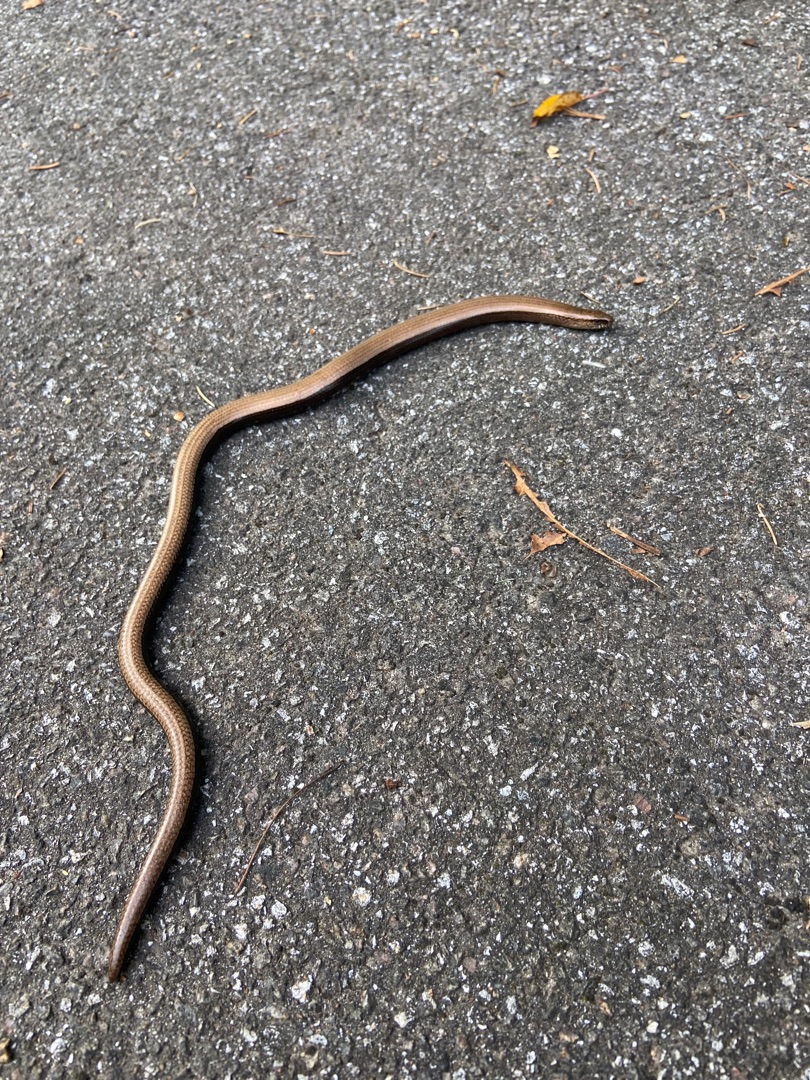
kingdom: Animalia
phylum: Chordata
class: Squamata
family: Anguidae
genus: Anguis
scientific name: Anguis fragilis
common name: Stålorm
